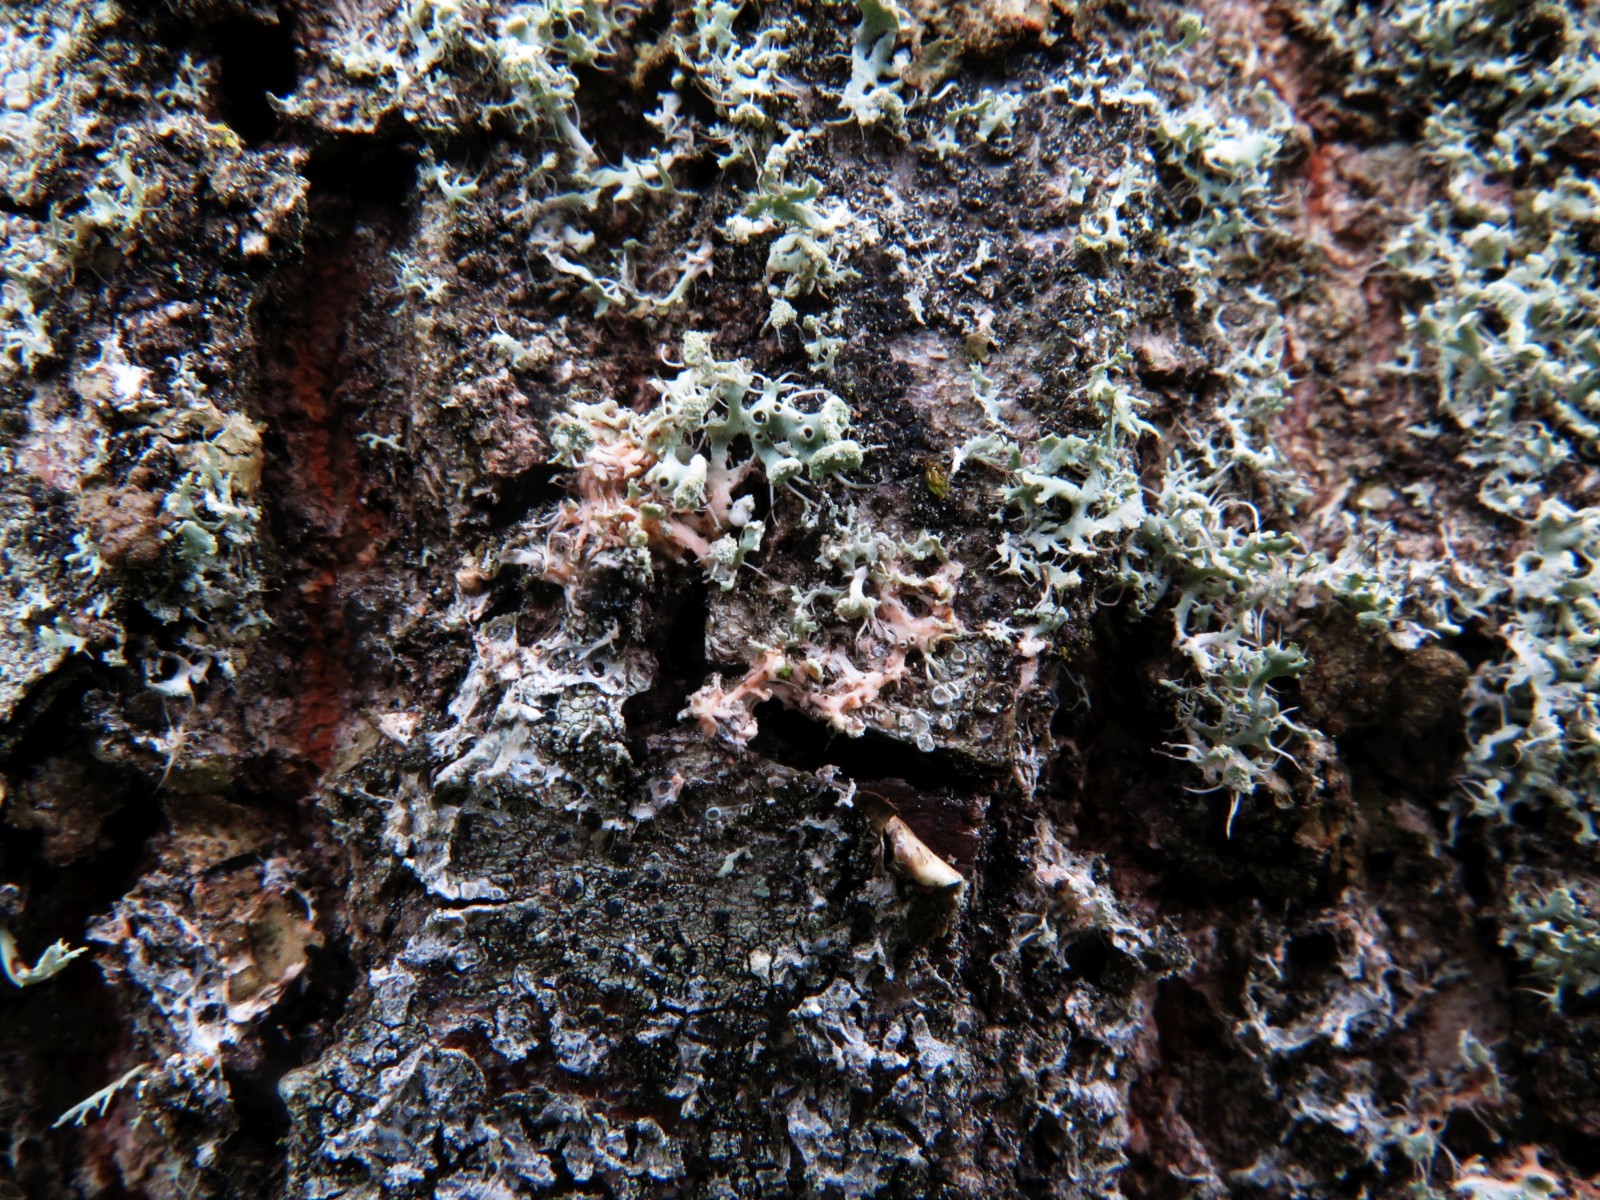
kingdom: Fungi
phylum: Basidiomycota
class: Agaricomycetes
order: Corticiales
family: Corticiaceae
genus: Erythricium
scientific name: Erythricium aurantiacum
